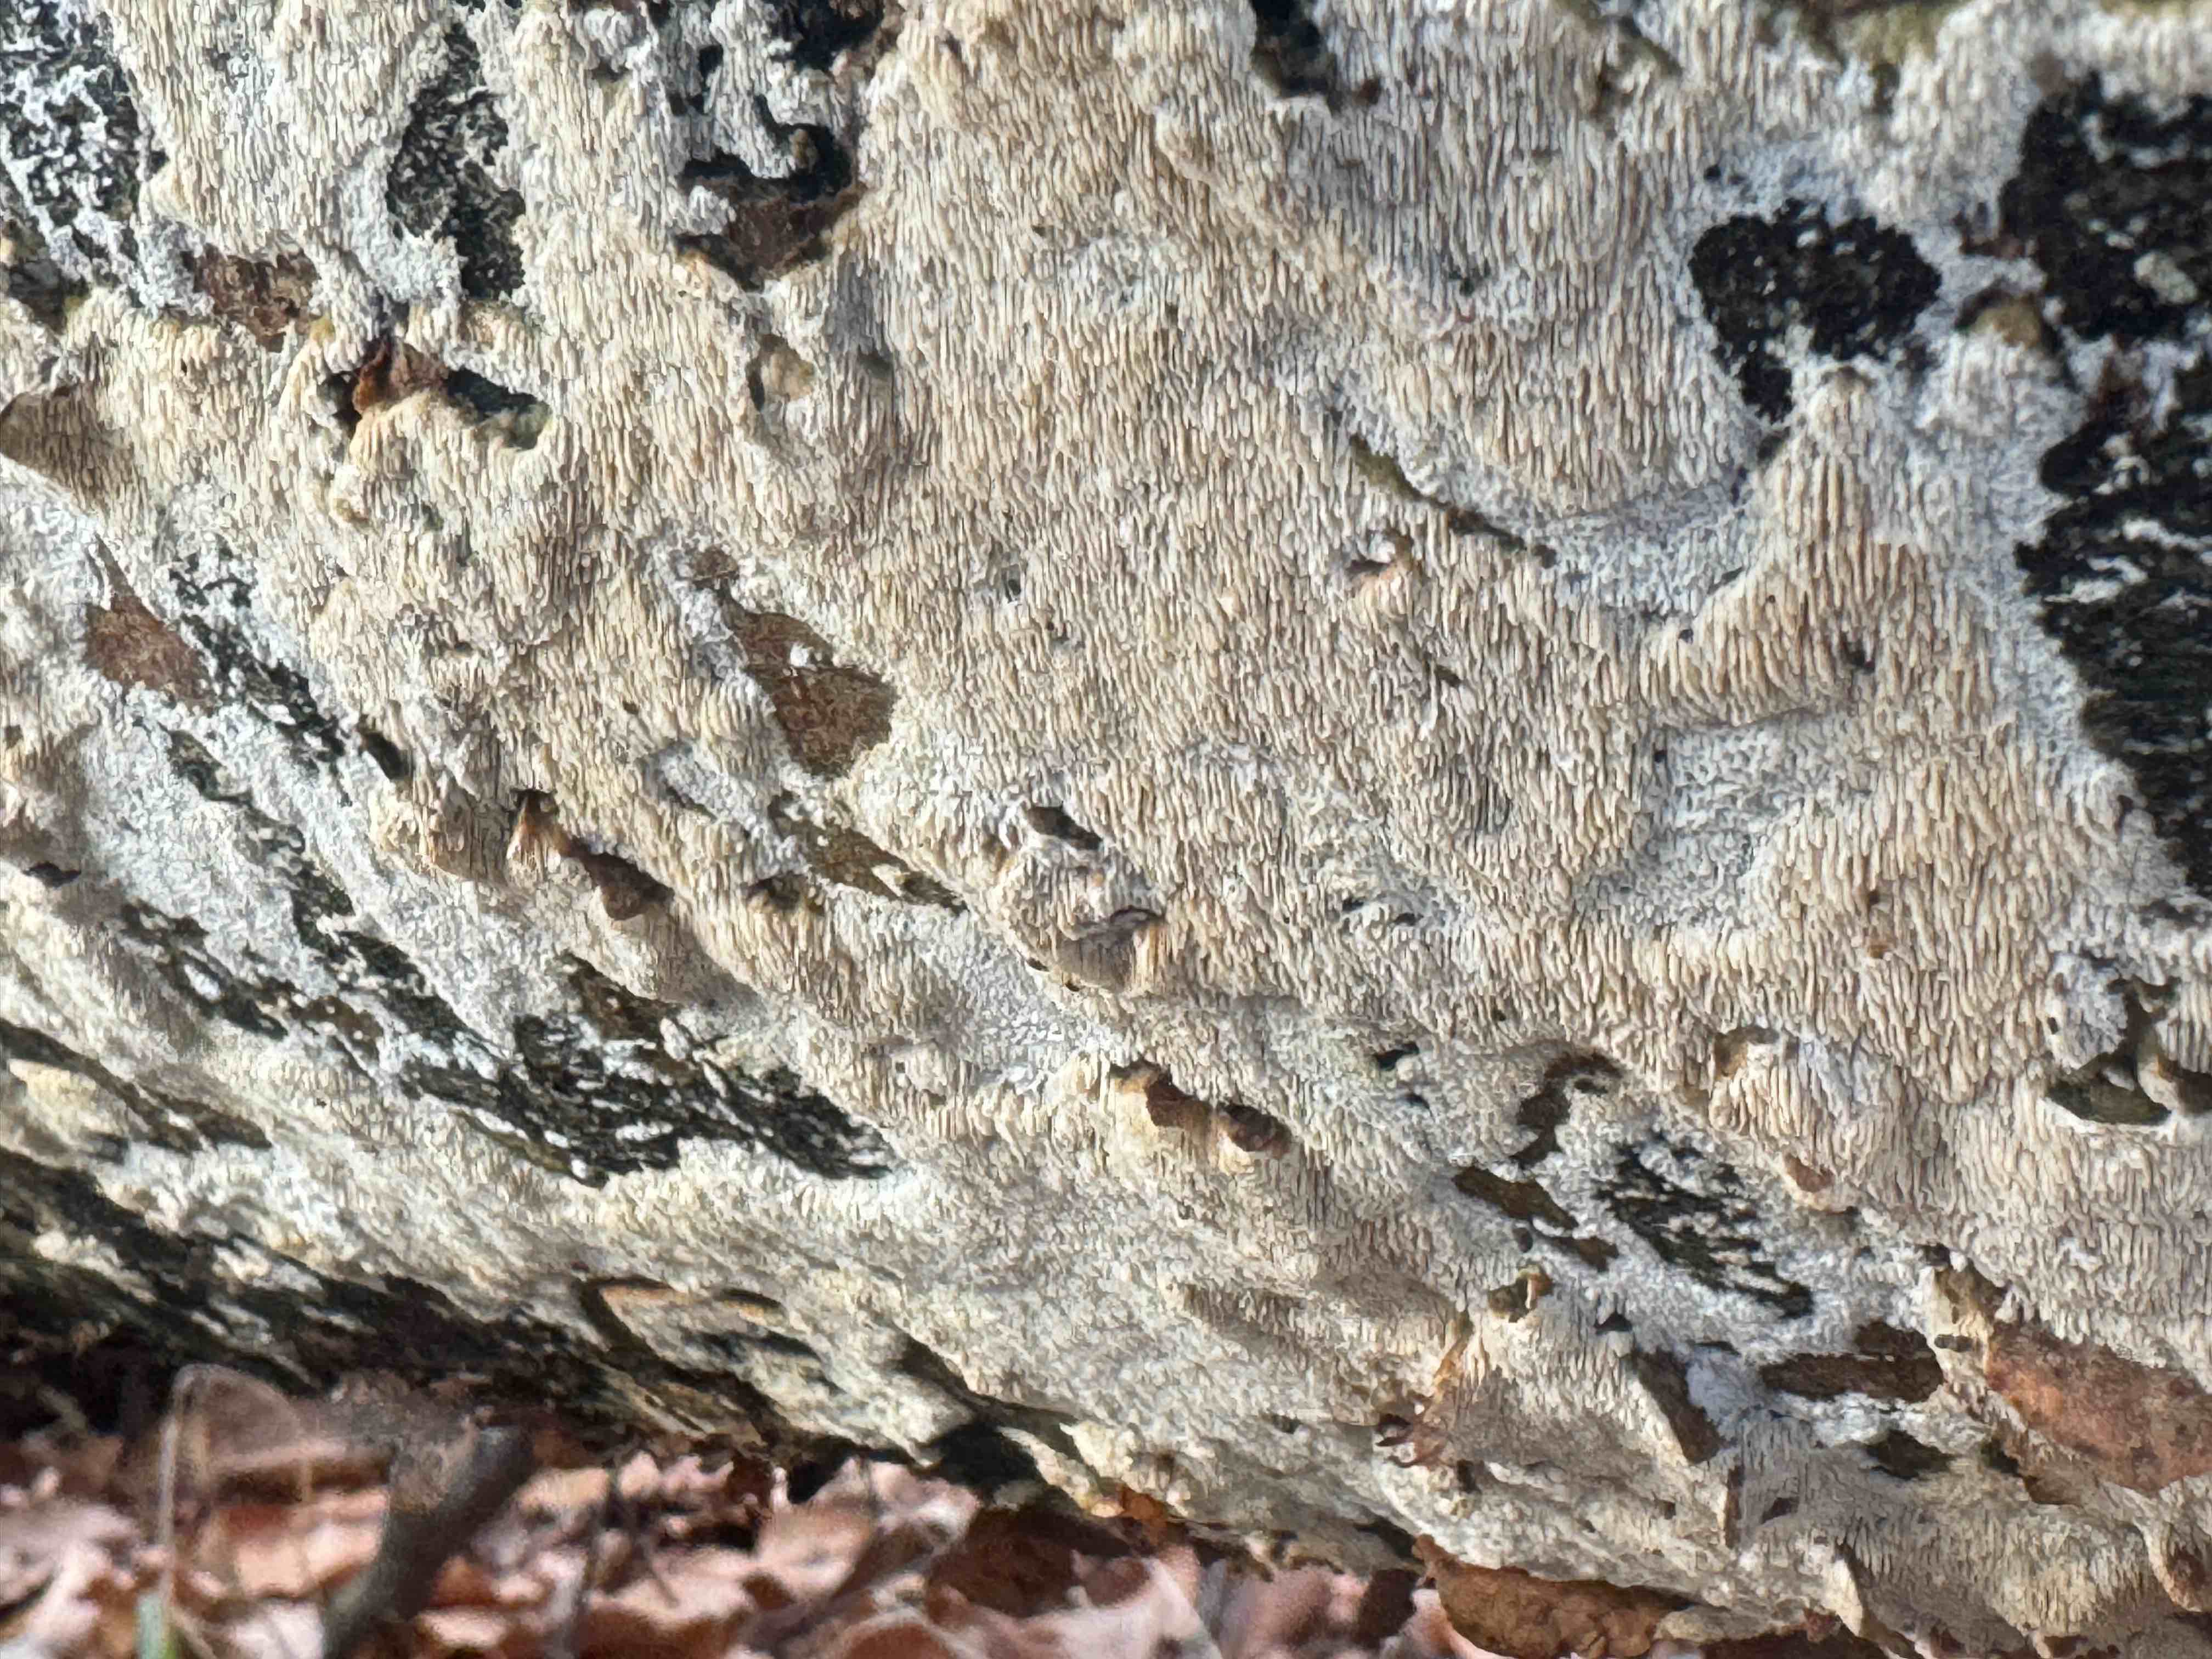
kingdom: Fungi
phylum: Basidiomycota
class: Agaricomycetes
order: Hymenochaetales
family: Schizoporaceae
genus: Schizopora
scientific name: Schizopora paradoxa
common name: hvid tandsvamp
